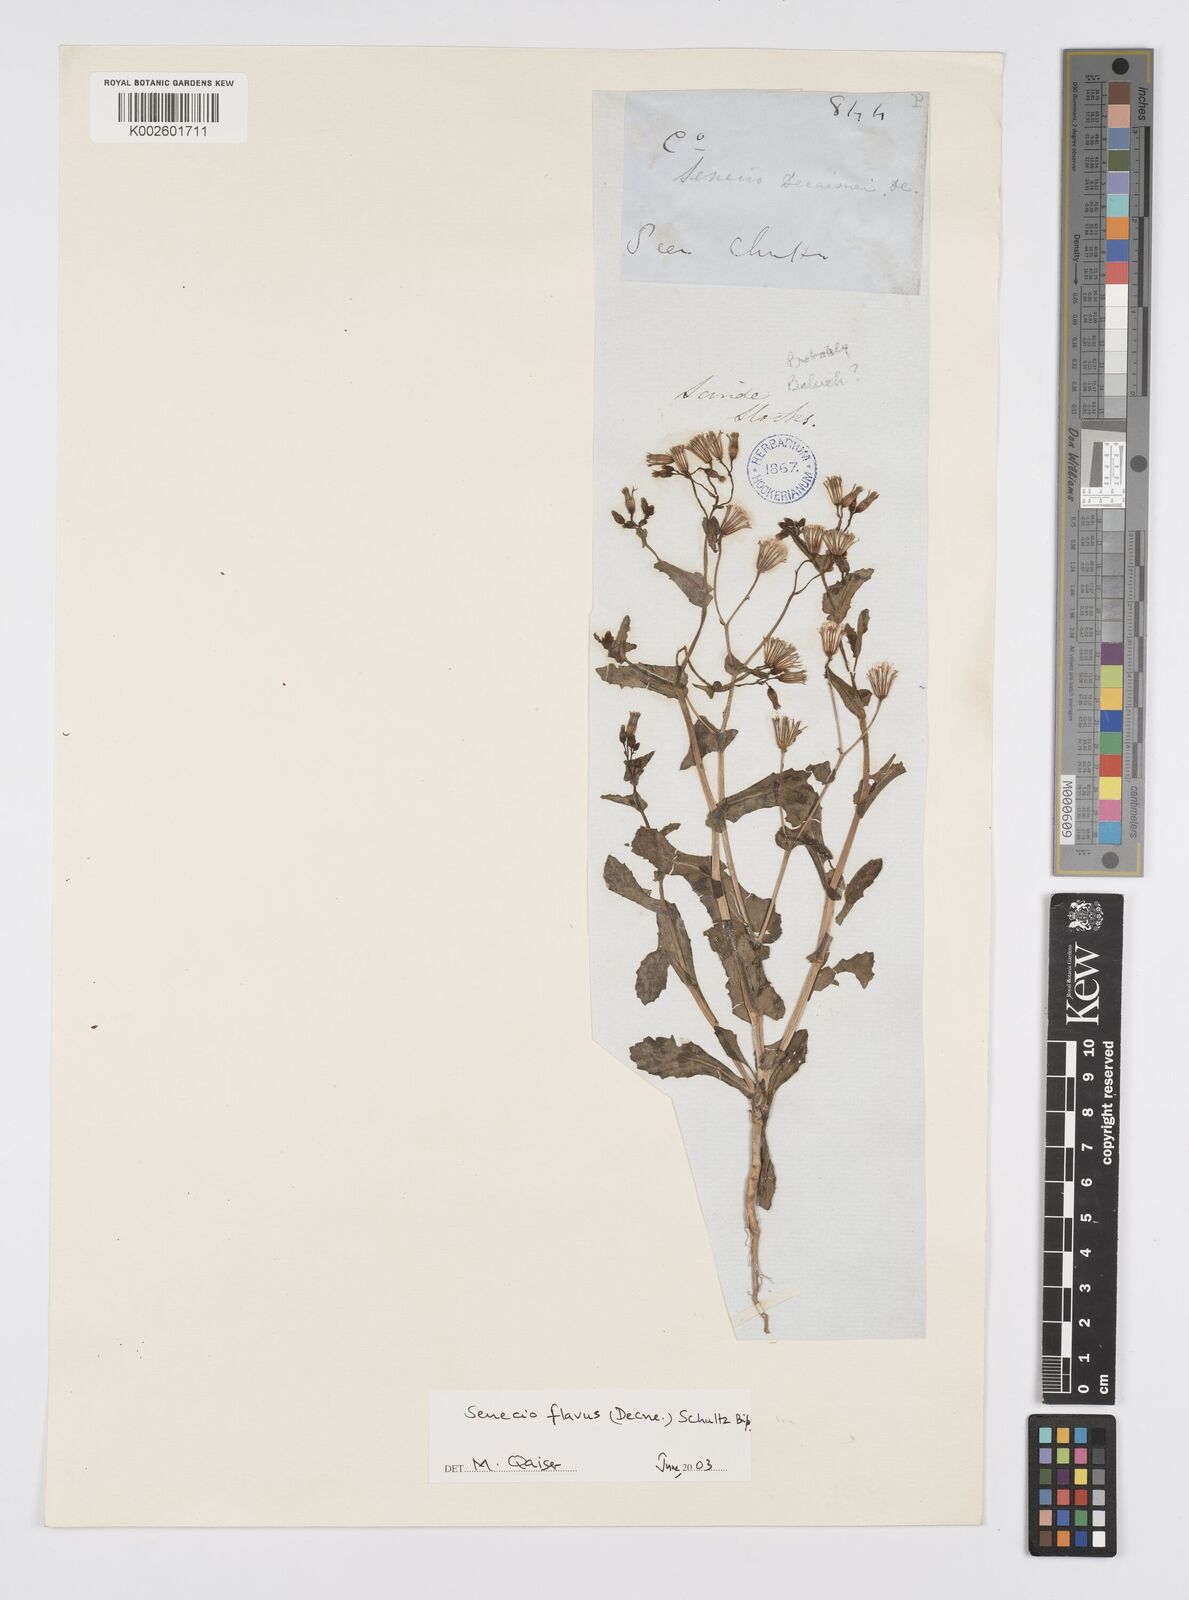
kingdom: Plantae
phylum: Tracheophyta
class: Magnoliopsida
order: Asterales
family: Asteraceae
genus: Senecio
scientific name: Senecio breviflorus
